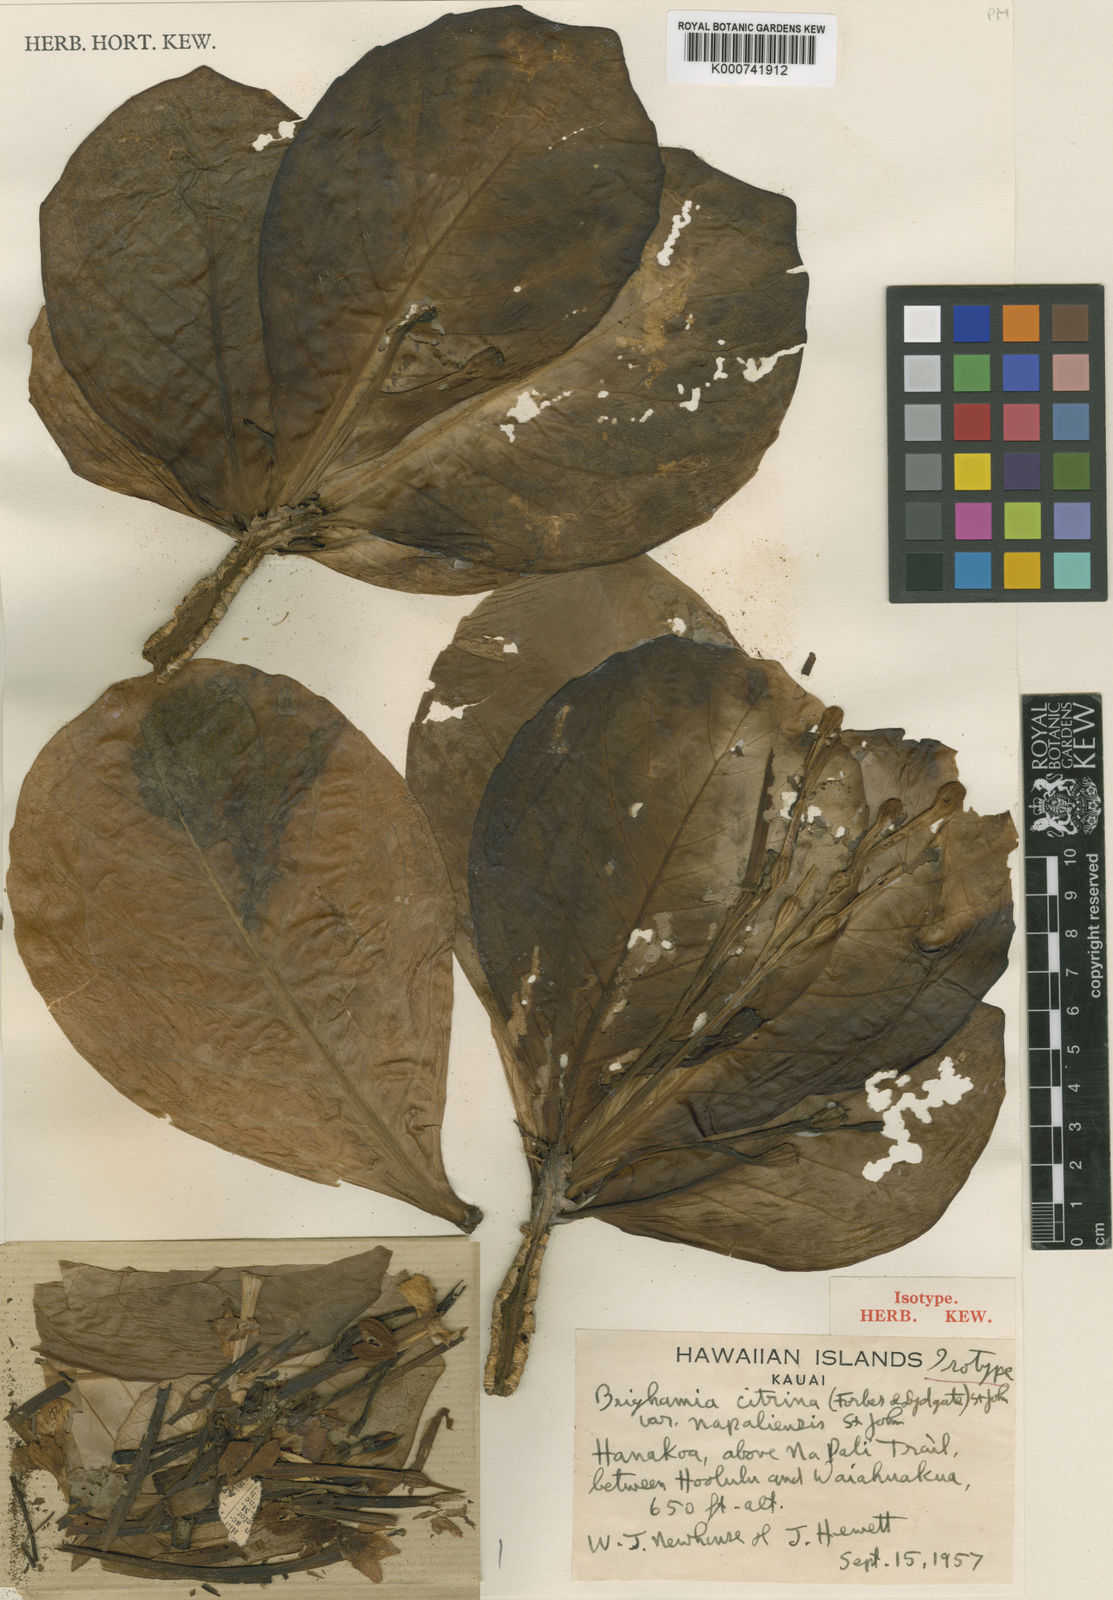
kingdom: Plantae
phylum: Tracheophyta
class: Magnoliopsida
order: Asterales
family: Campanulaceae
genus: Brighamia
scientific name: Brighamia insignis
